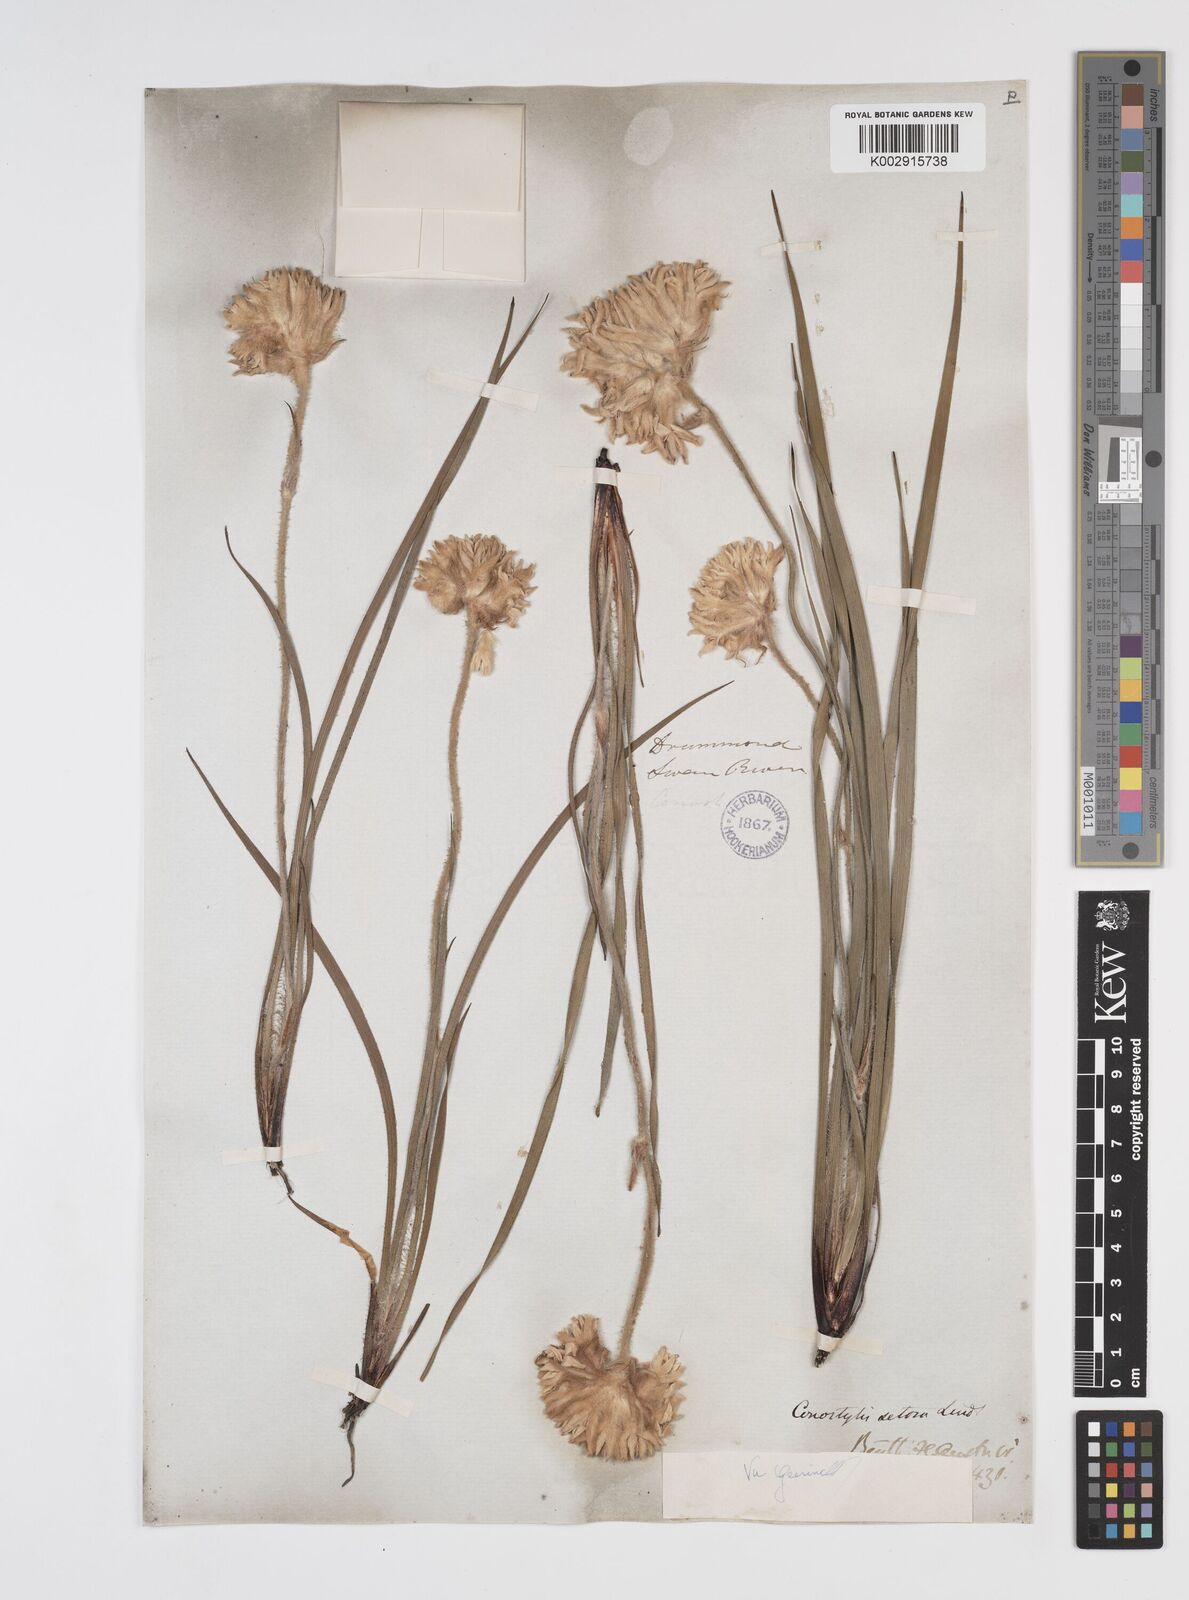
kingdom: Plantae
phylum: Tracheophyta
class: Liliopsida
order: Commelinales
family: Haemodoraceae
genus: Conostylis
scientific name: Conostylis setosa
